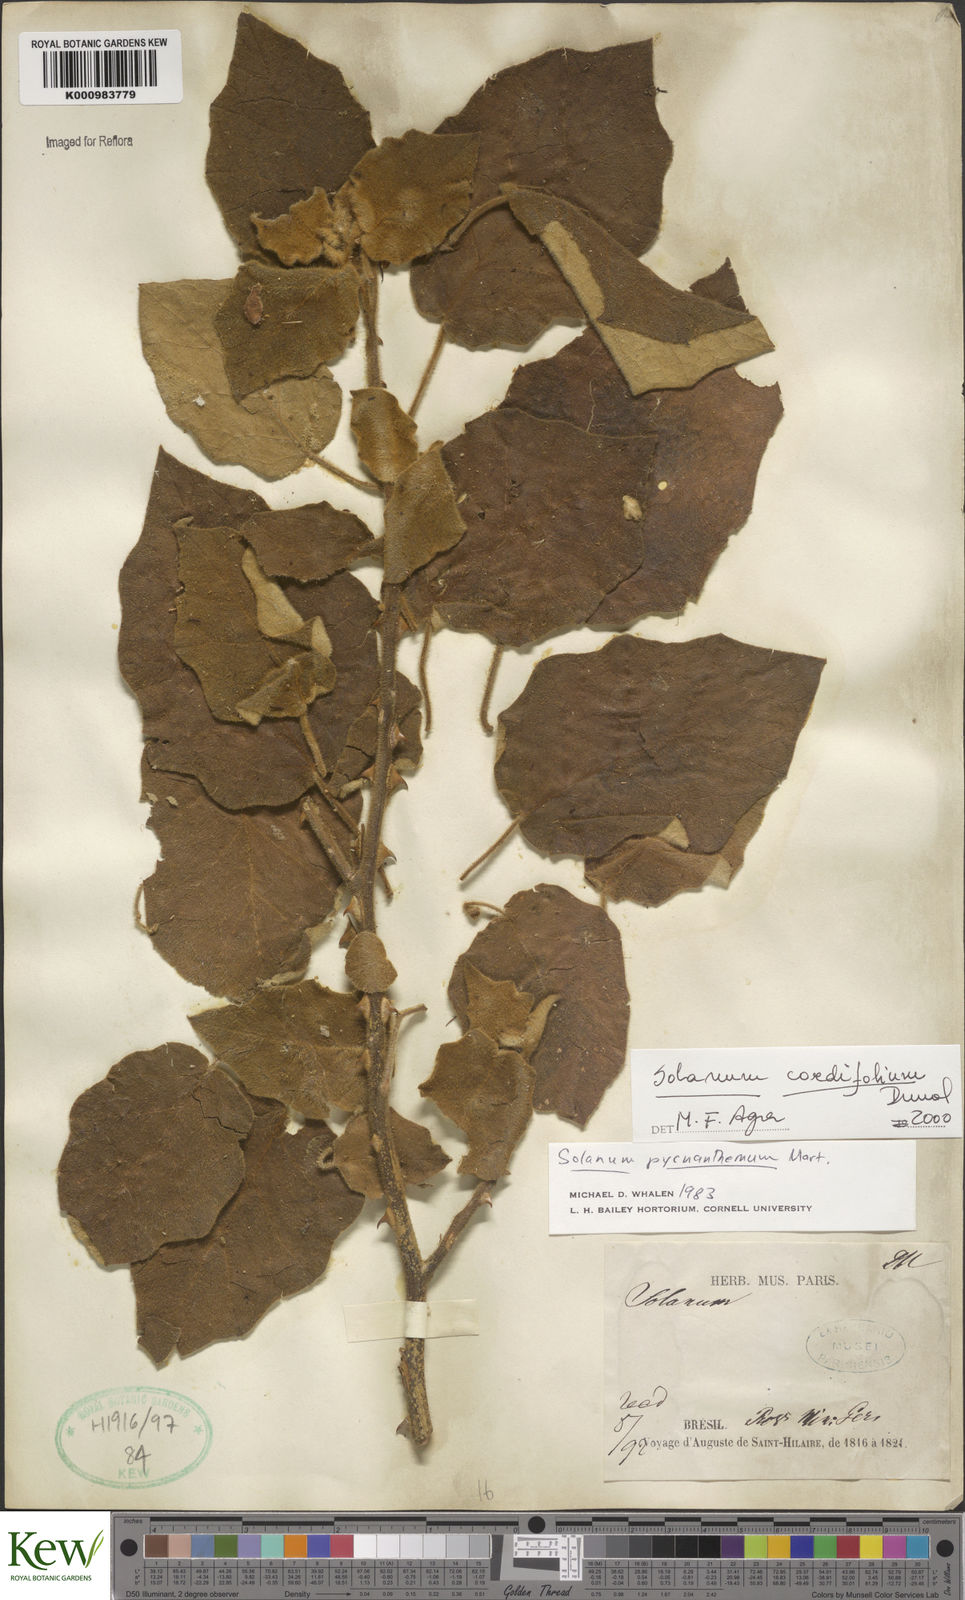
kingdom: Plantae
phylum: Tracheophyta
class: Magnoliopsida
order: Solanales
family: Solanaceae
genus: Solanum
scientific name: Solanum cordifolium
